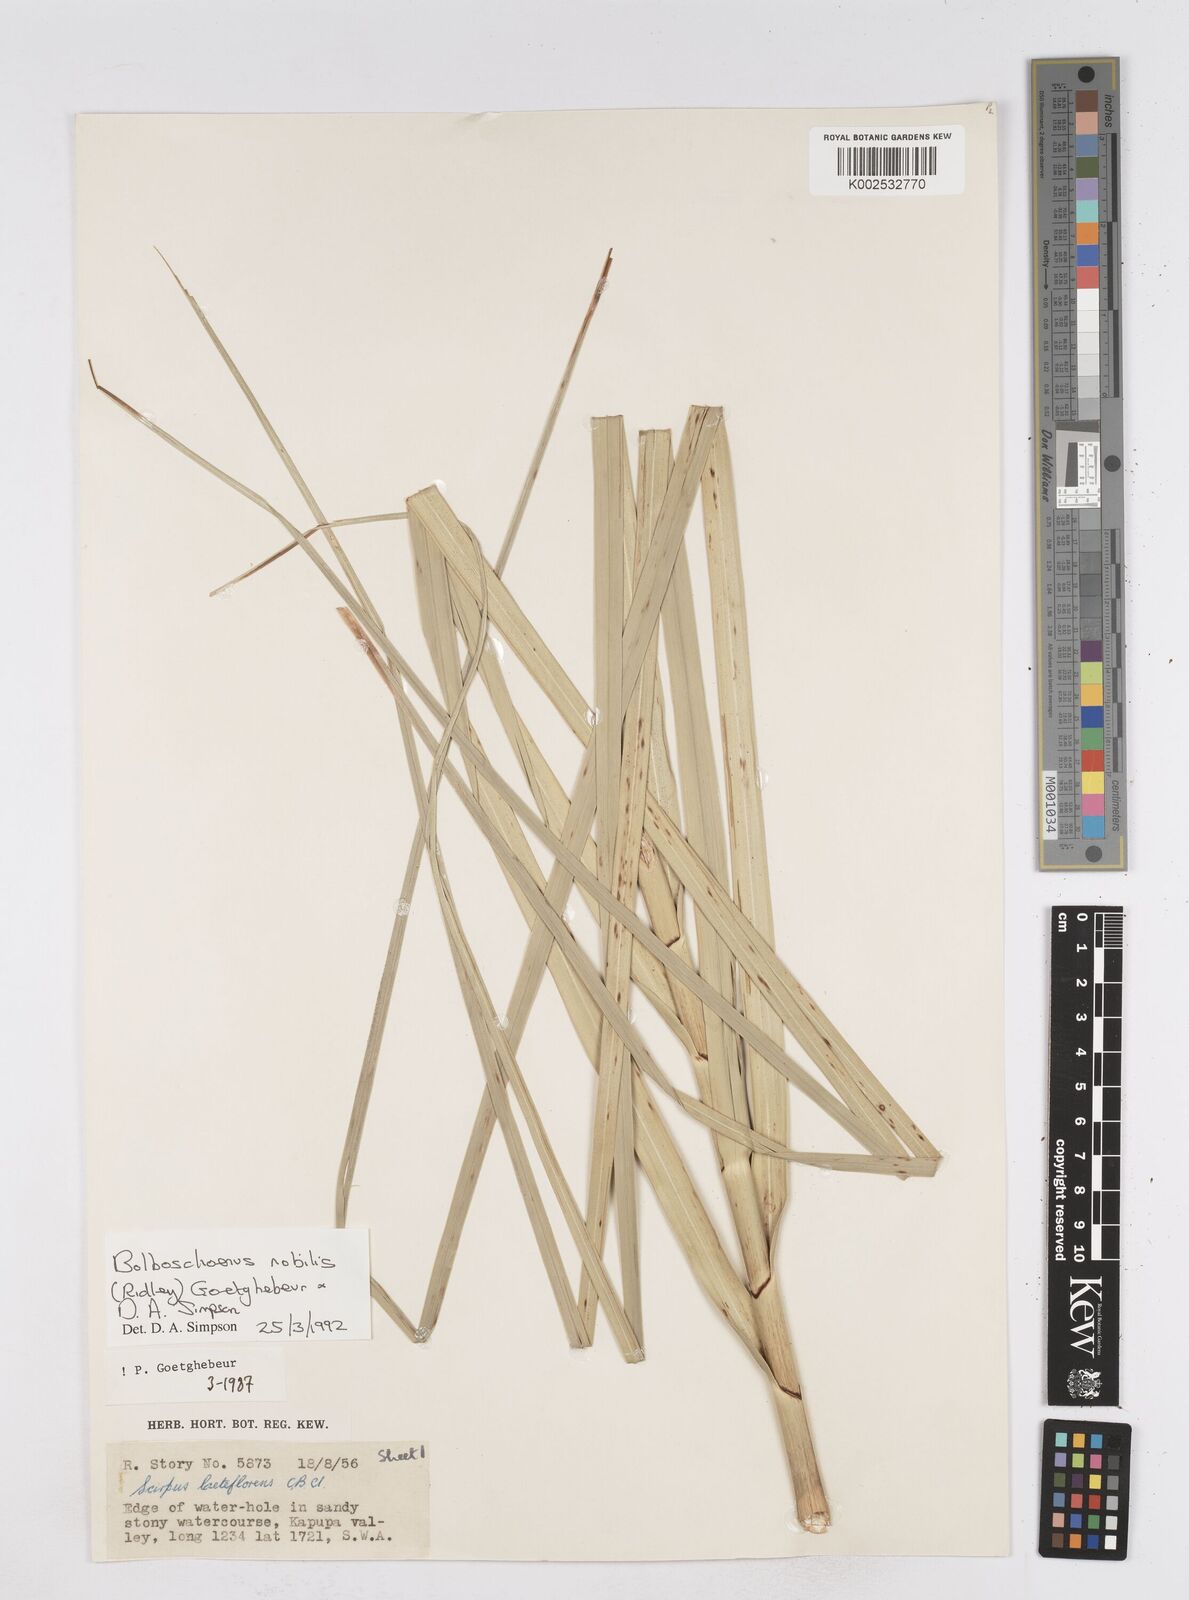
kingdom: Plantae
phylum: Tracheophyta
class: Liliopsida
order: Poales
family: Cyperaceae
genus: Bolboschoenus
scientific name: Bolboschoenus nobilis
